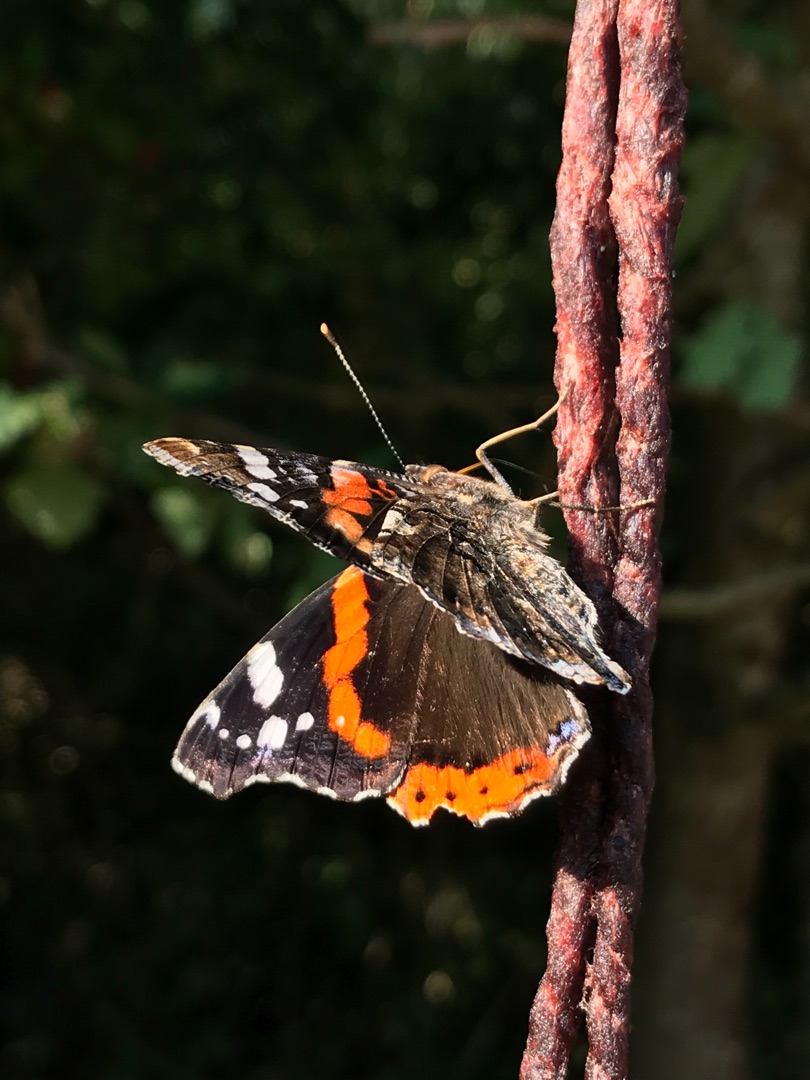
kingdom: Animalia
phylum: Arthropoda
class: Insecta
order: Lepidoptera
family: Nymphalidae
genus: Vanessa
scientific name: Vanessa atalanta
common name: Admiral
